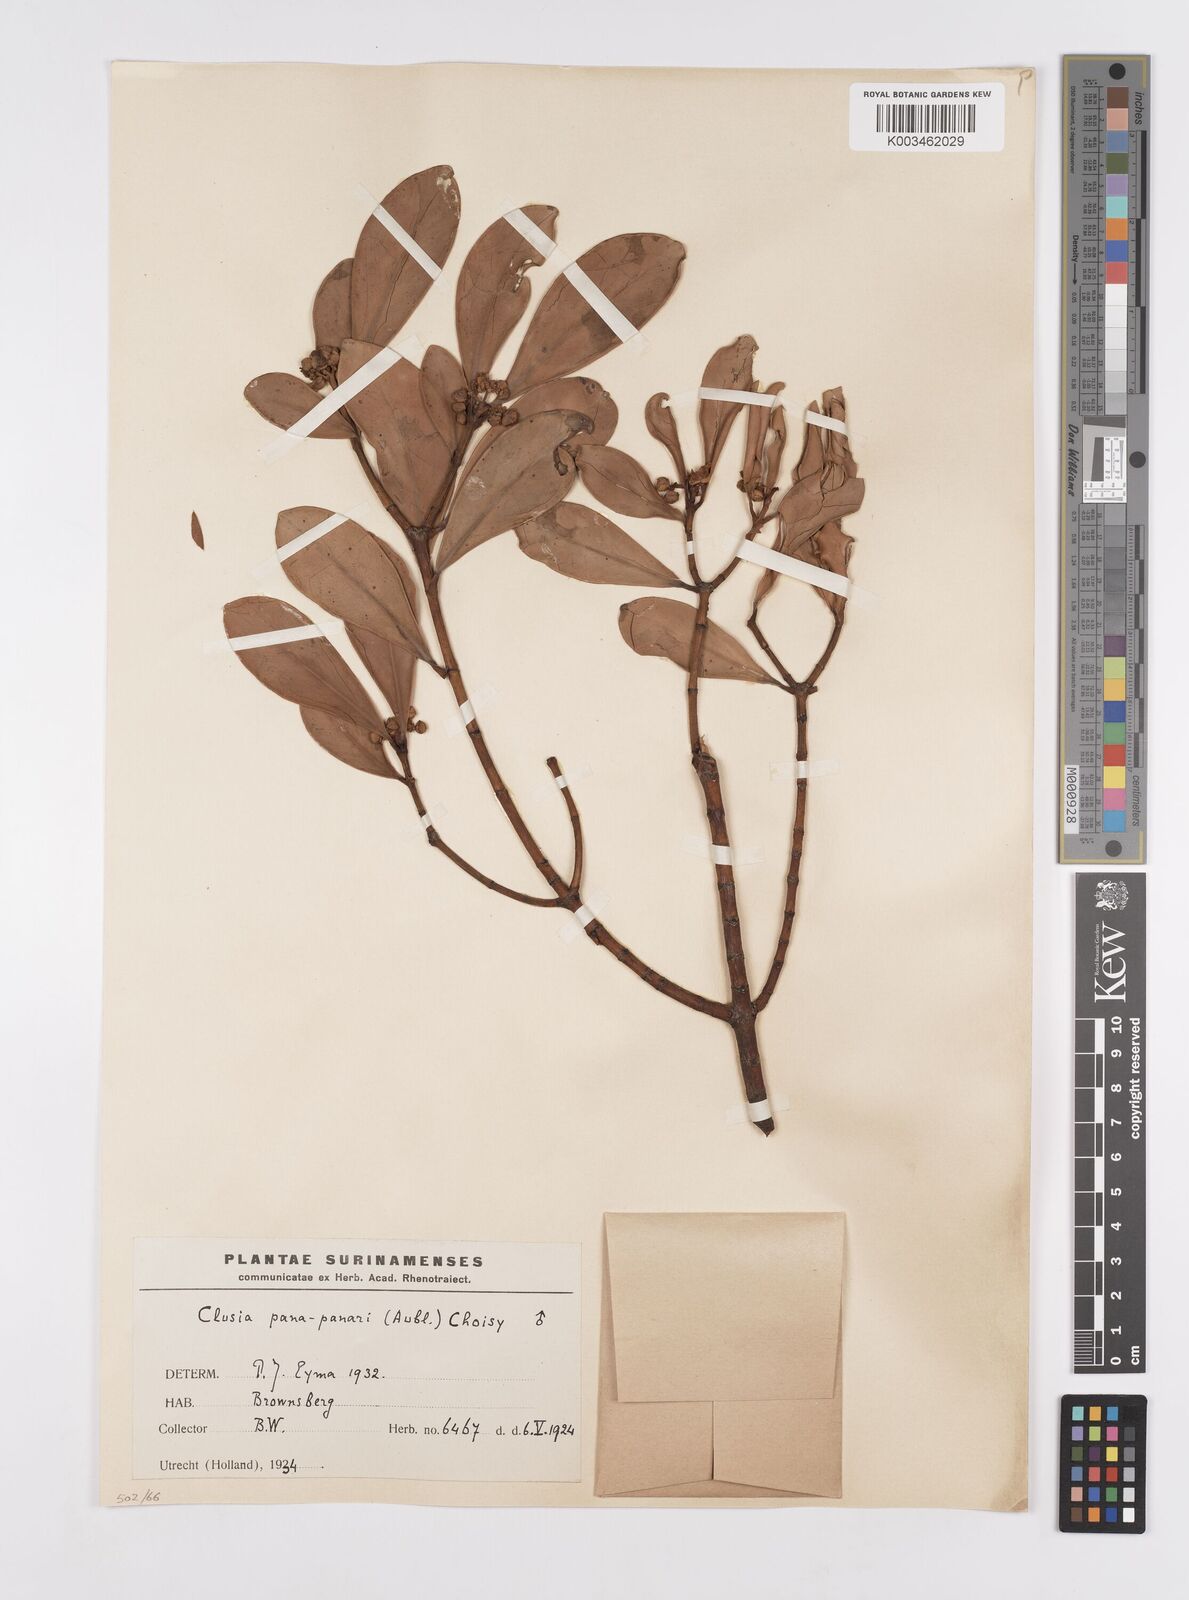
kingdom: Plantae
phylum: Tracheophyta
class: Magnoliopsida
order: Malpighiales
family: Clusiaceae
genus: Clusia
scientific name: Clusia panapanari
